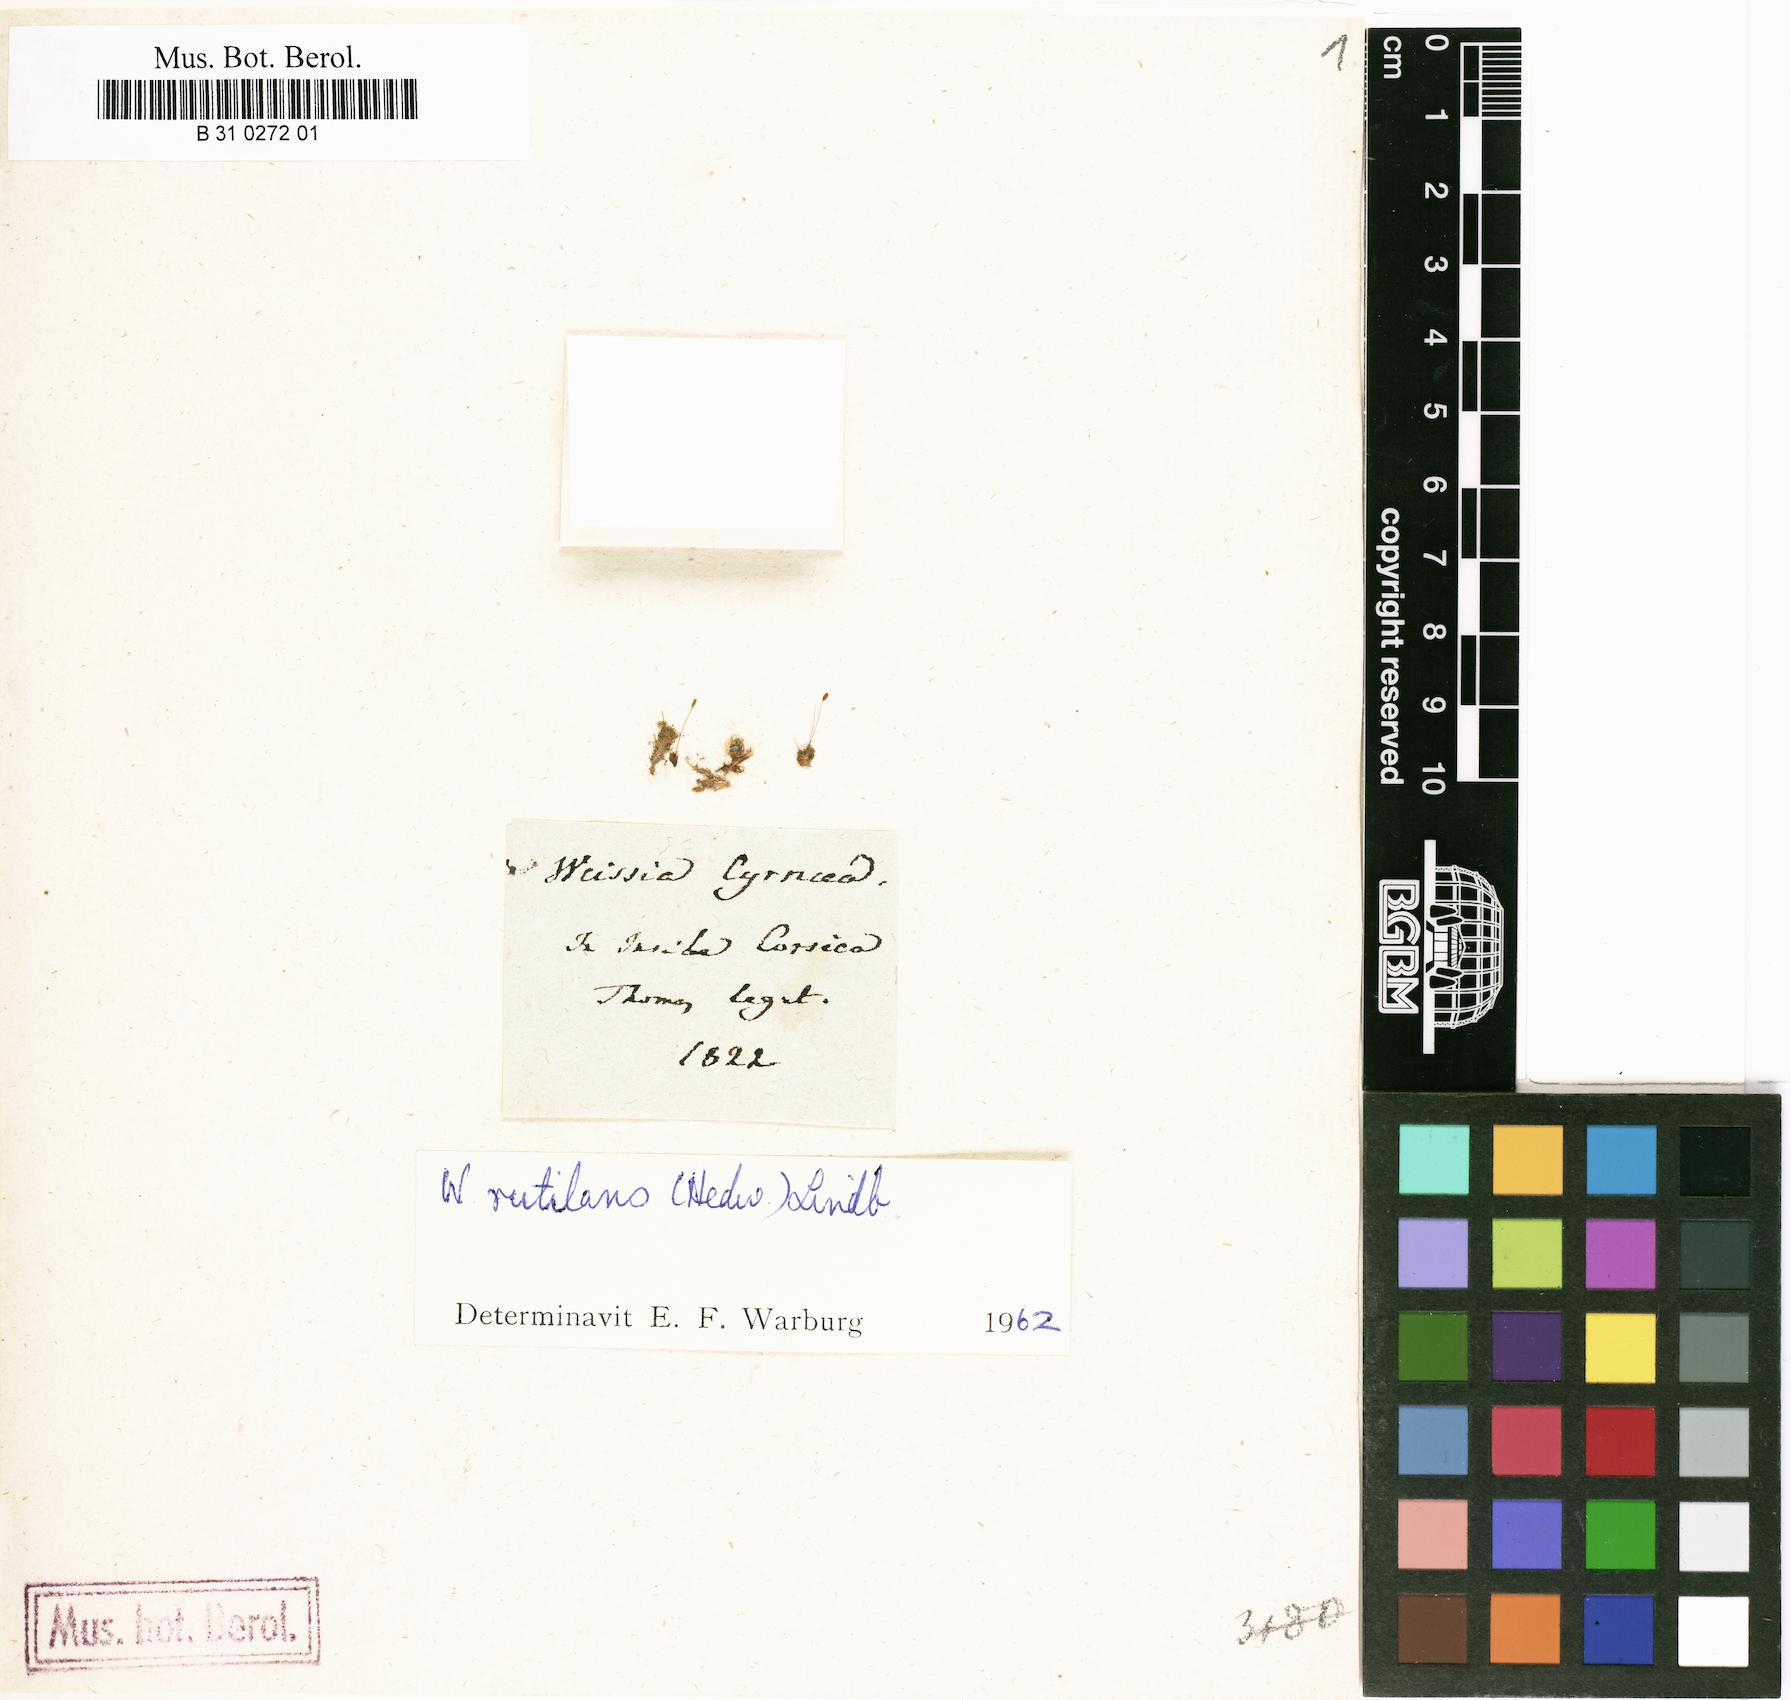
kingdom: Plantae
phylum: Bryophyta
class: Bryopsida
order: Pottiales
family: Pottiaceae
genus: Weissia
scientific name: Weissia controversa
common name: Green-tufted stubble moss
